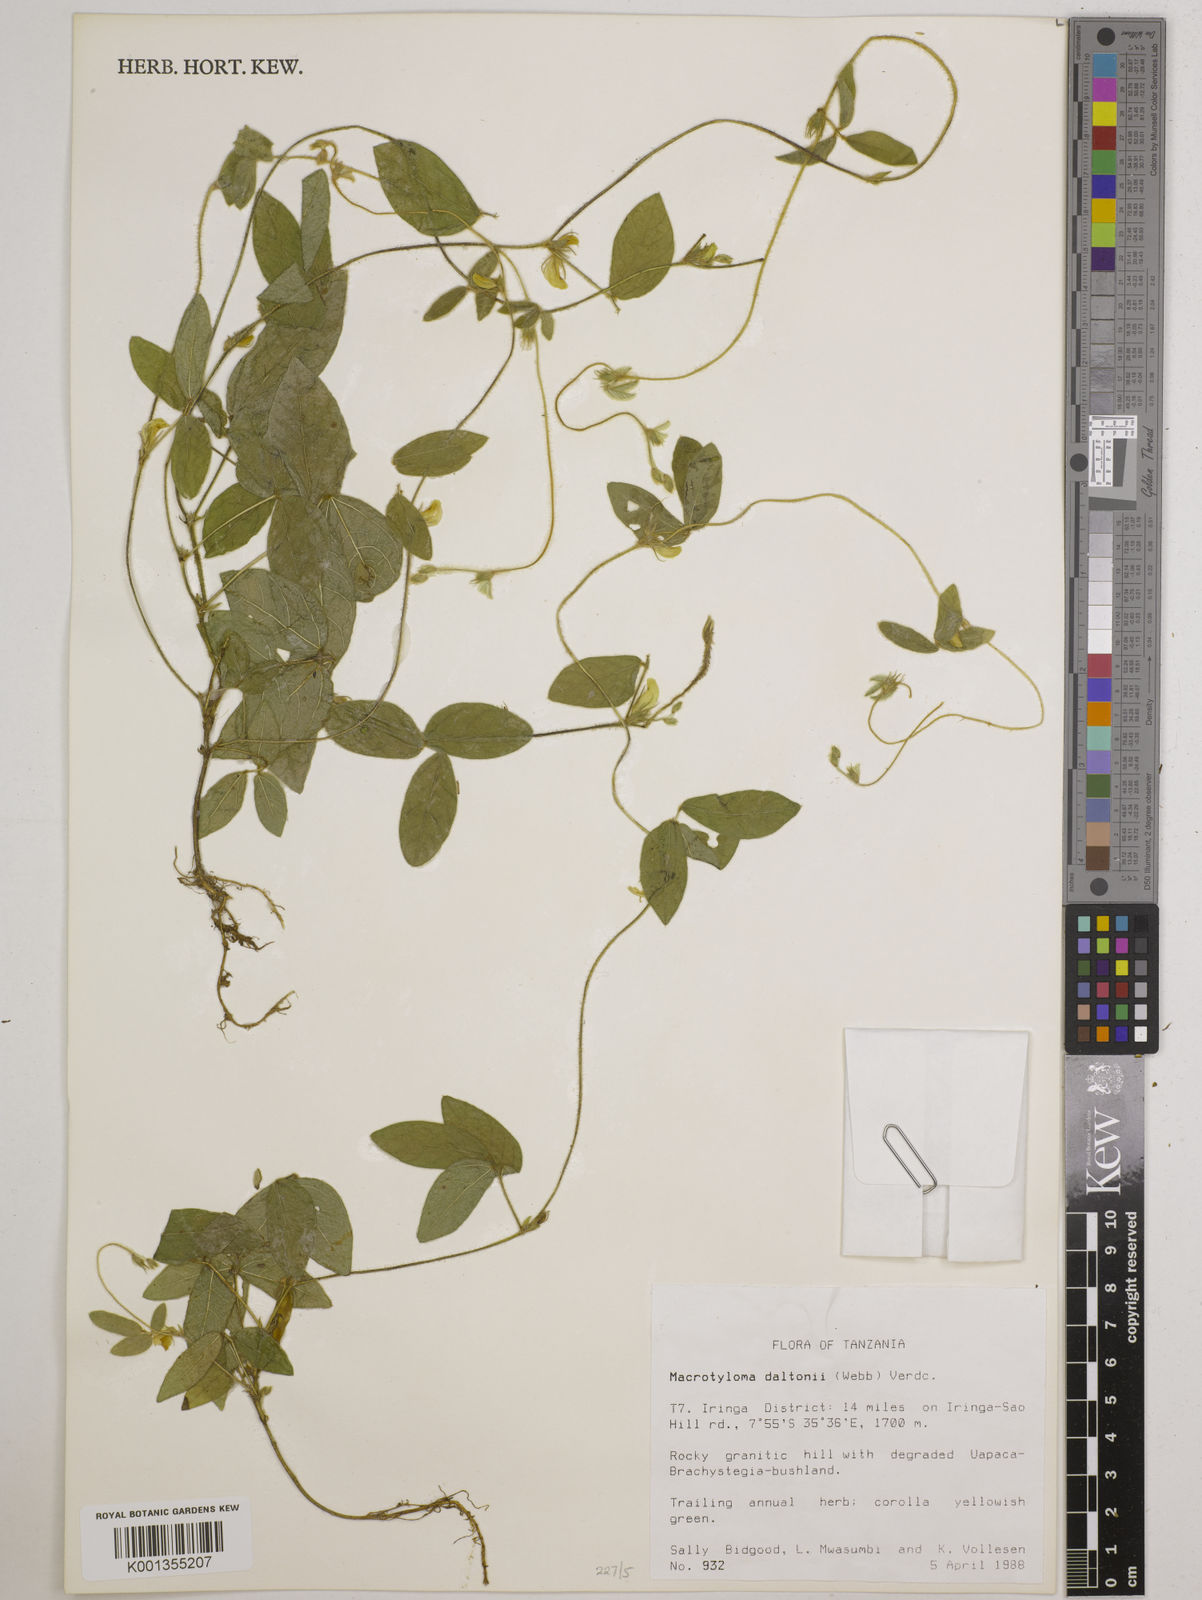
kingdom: Plantae
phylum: Tracheophyta
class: Magnoliopsida
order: Fabales
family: Fabaceae
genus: Macrotyloma
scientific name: Macrotyloma daltonii
